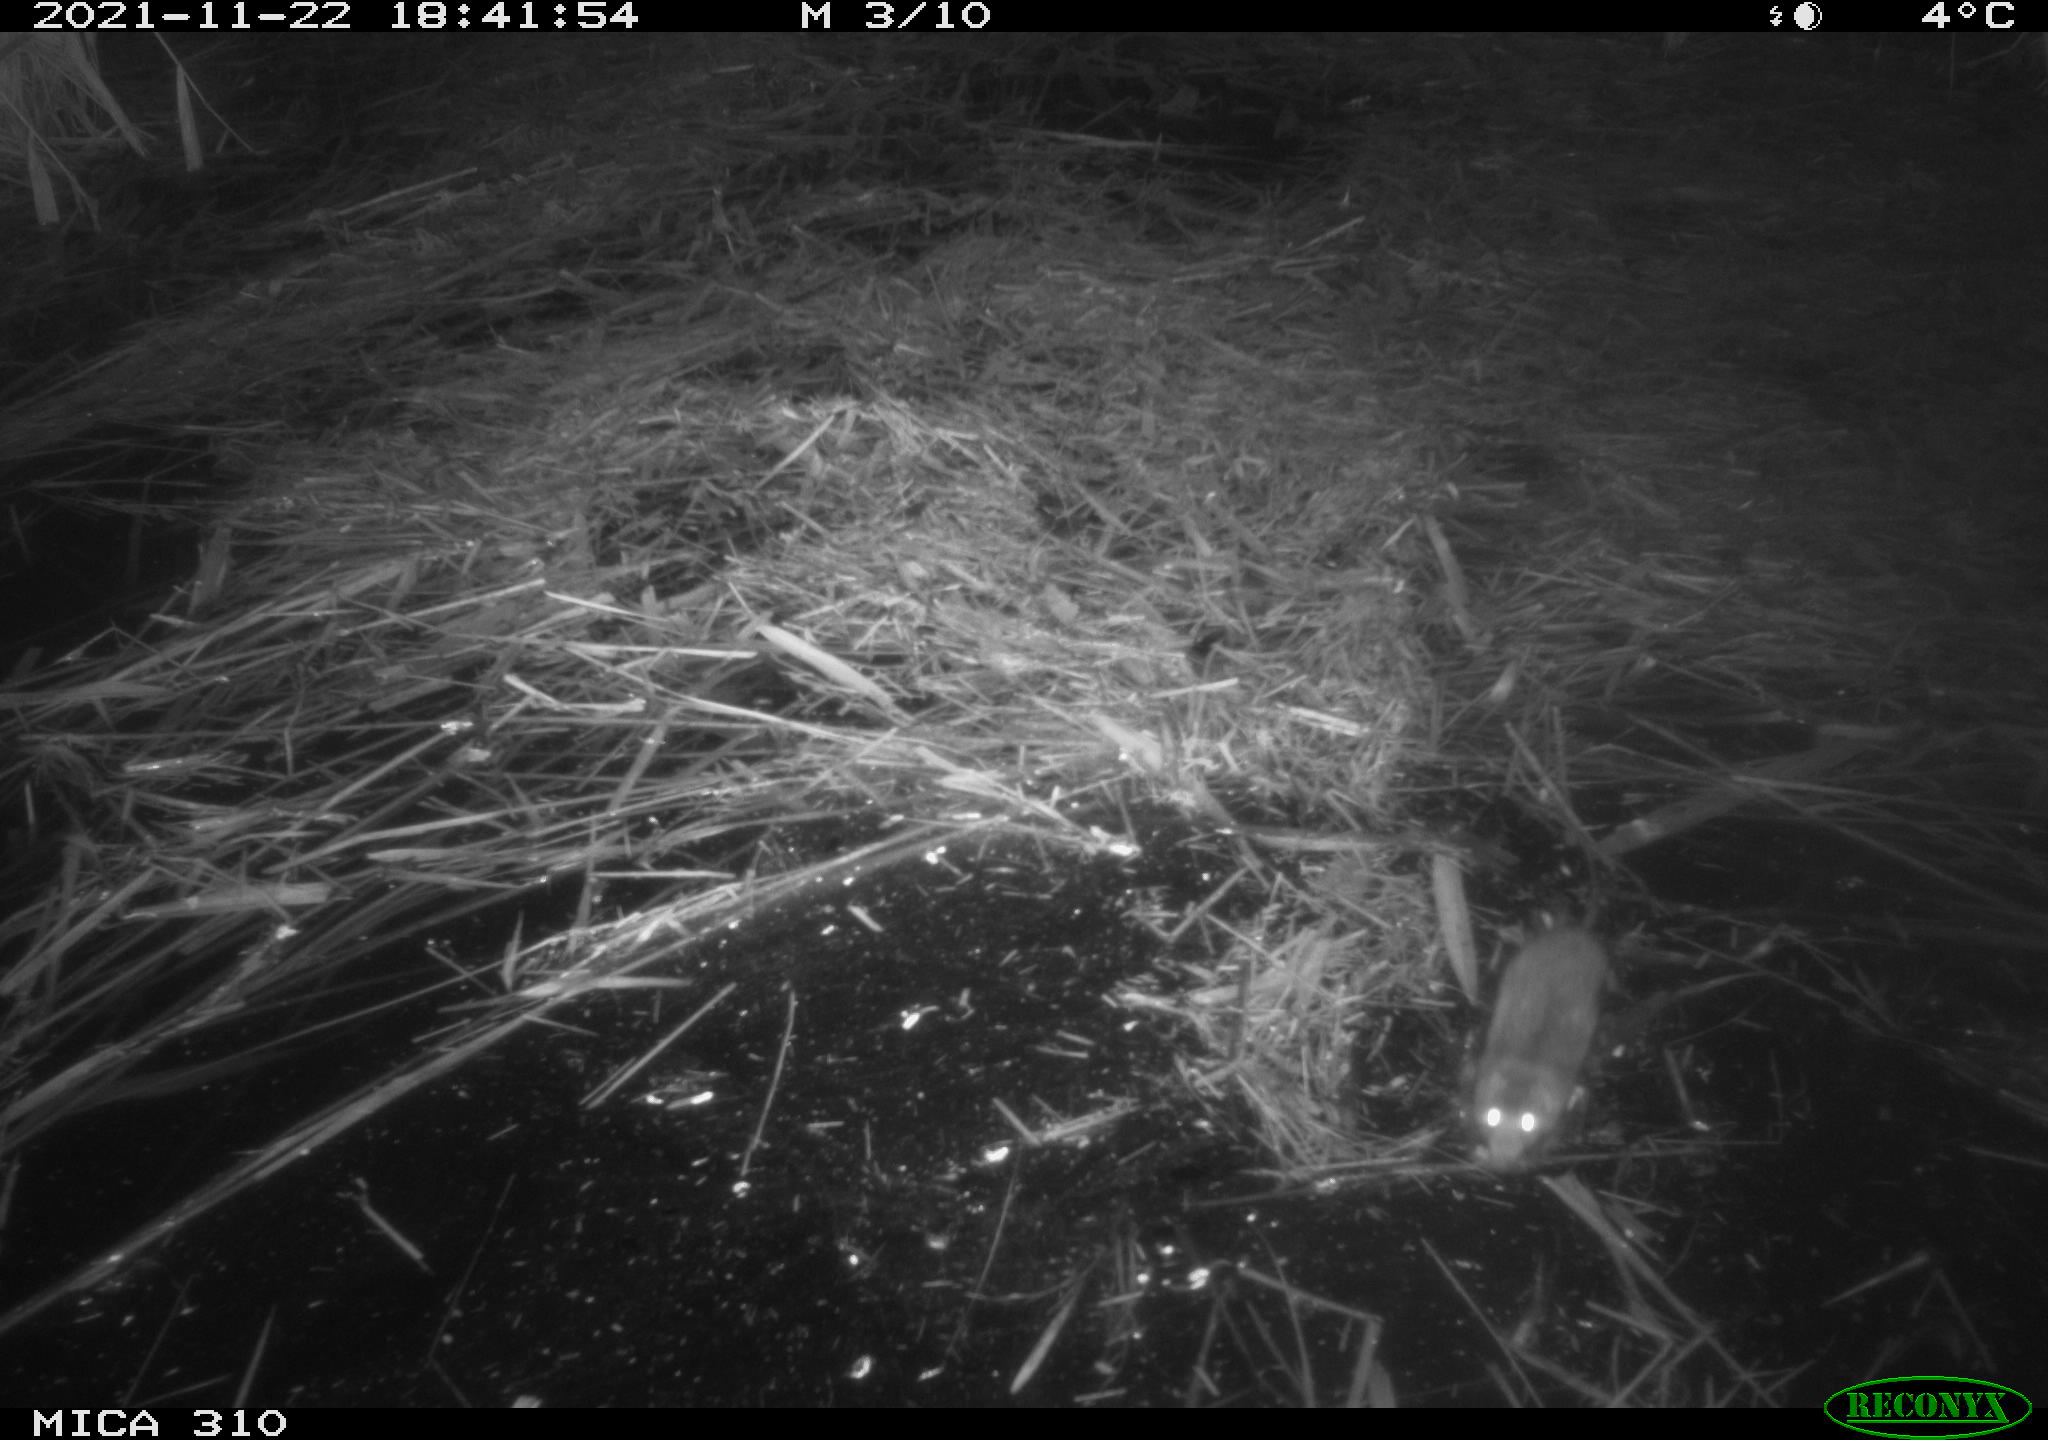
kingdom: Animalia
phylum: Chordata
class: Mammalia
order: Rodentia
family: Muridae
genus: Rattus
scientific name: Rattus norvegicus
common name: Brown rat
